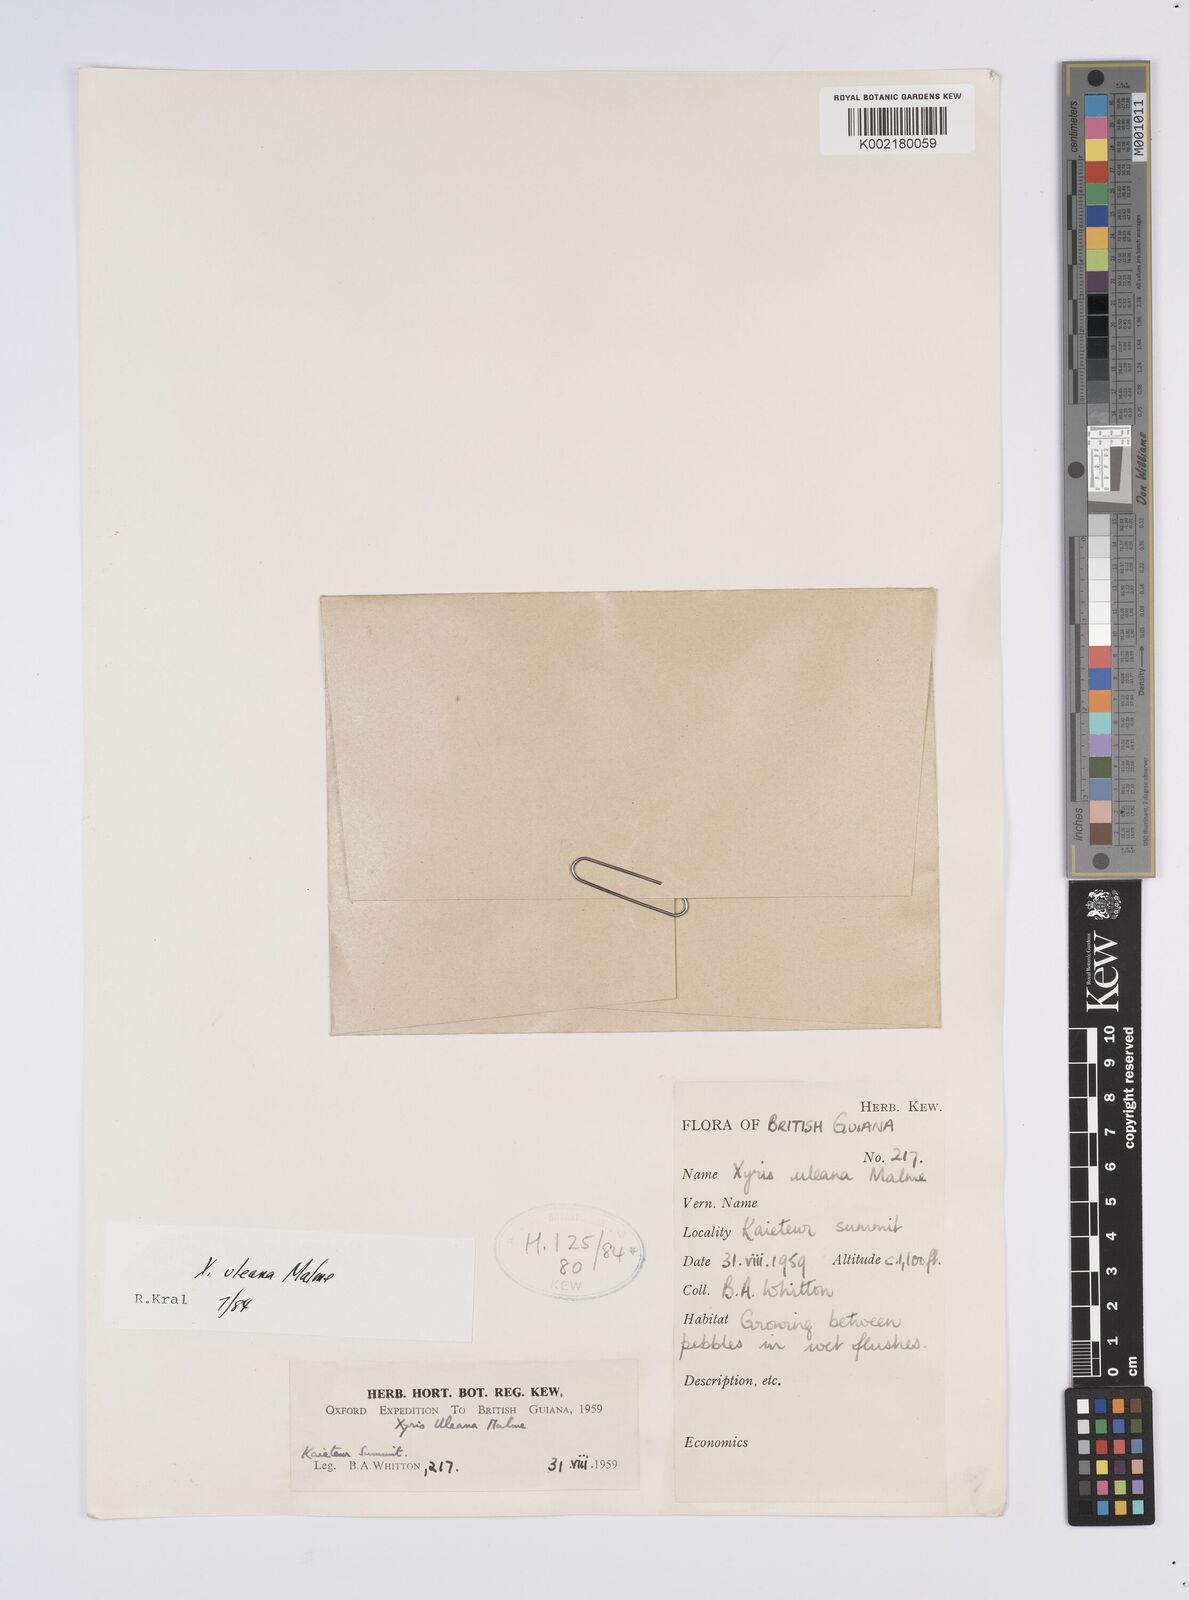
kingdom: Plantae
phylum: Tracheophyta
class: Liliopsida
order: Poales
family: Xyridaceae
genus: Xyris
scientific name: Xyris uleana
